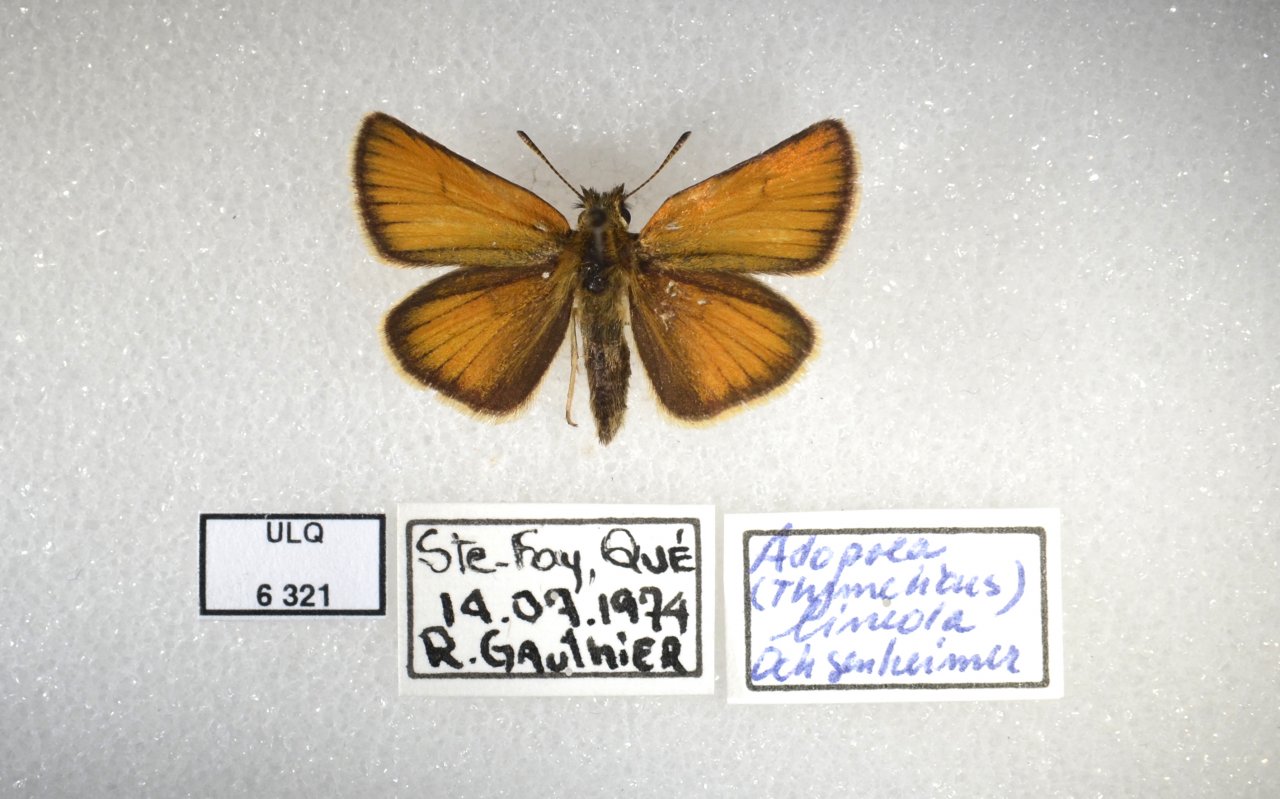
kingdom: Animalia
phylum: Arthropoda
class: Insecta
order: Lepidoptera
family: Hesperiidae
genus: Thymelicus
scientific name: Thymelicus lineola
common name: European Skipper
